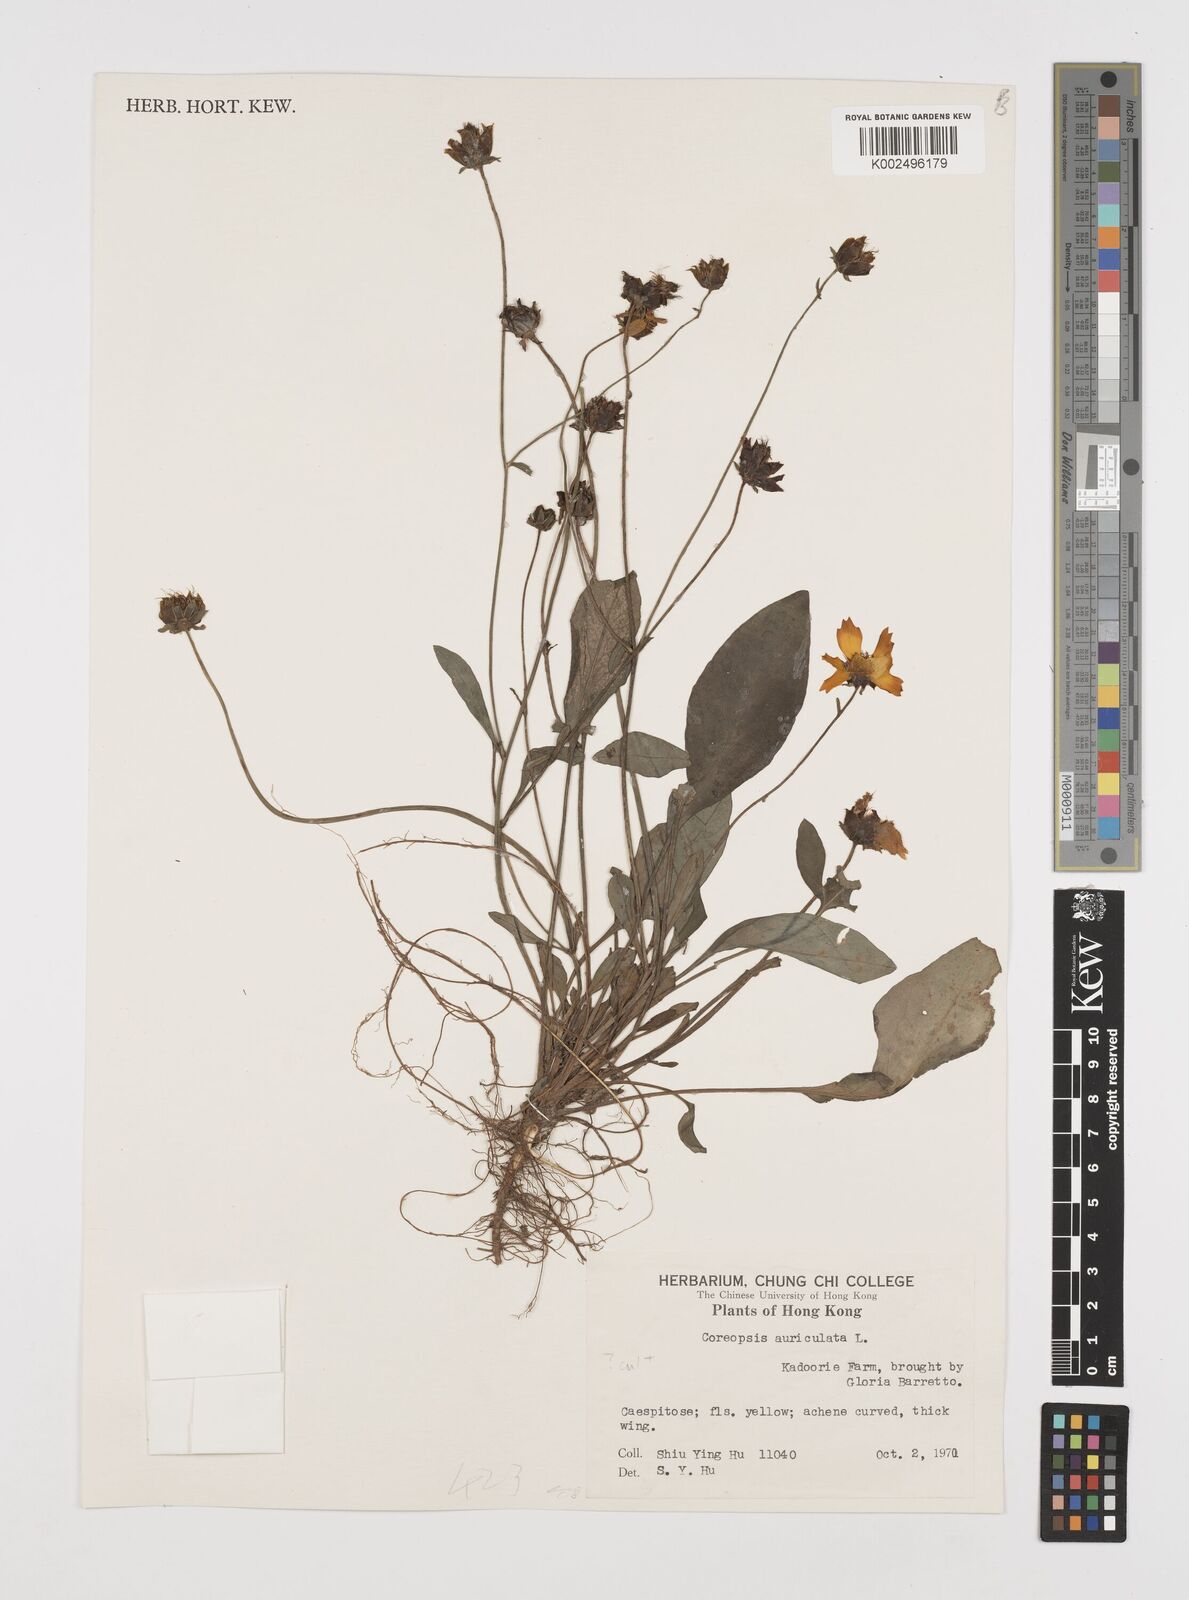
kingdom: Plantae
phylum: Tracheophyta
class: Magnoliopsida
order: Asterales
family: Asteraceae
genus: Coreopsis
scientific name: Coreopsis pubescens
